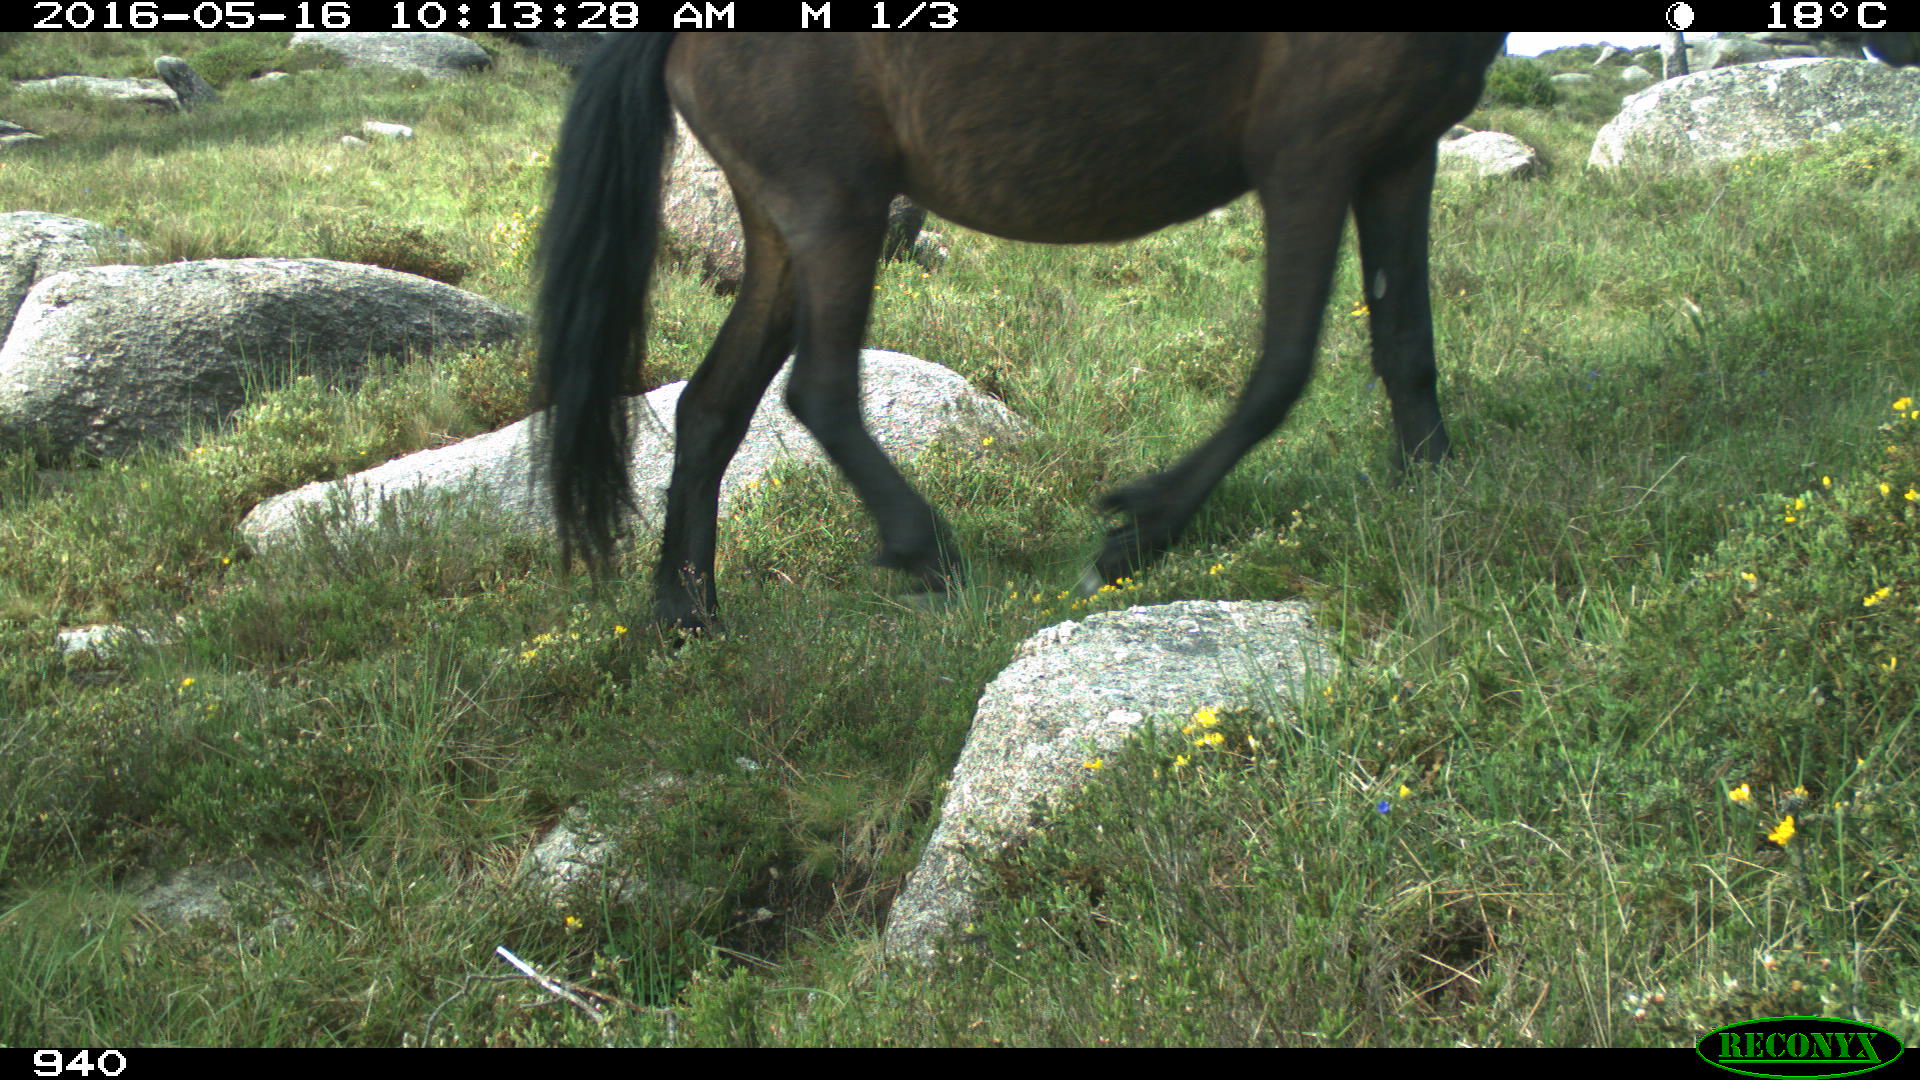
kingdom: Animalia
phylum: Chordata
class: Mammalia
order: Perissodactyla
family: Equidae
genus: Equus
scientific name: Equus caballus
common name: Horse
